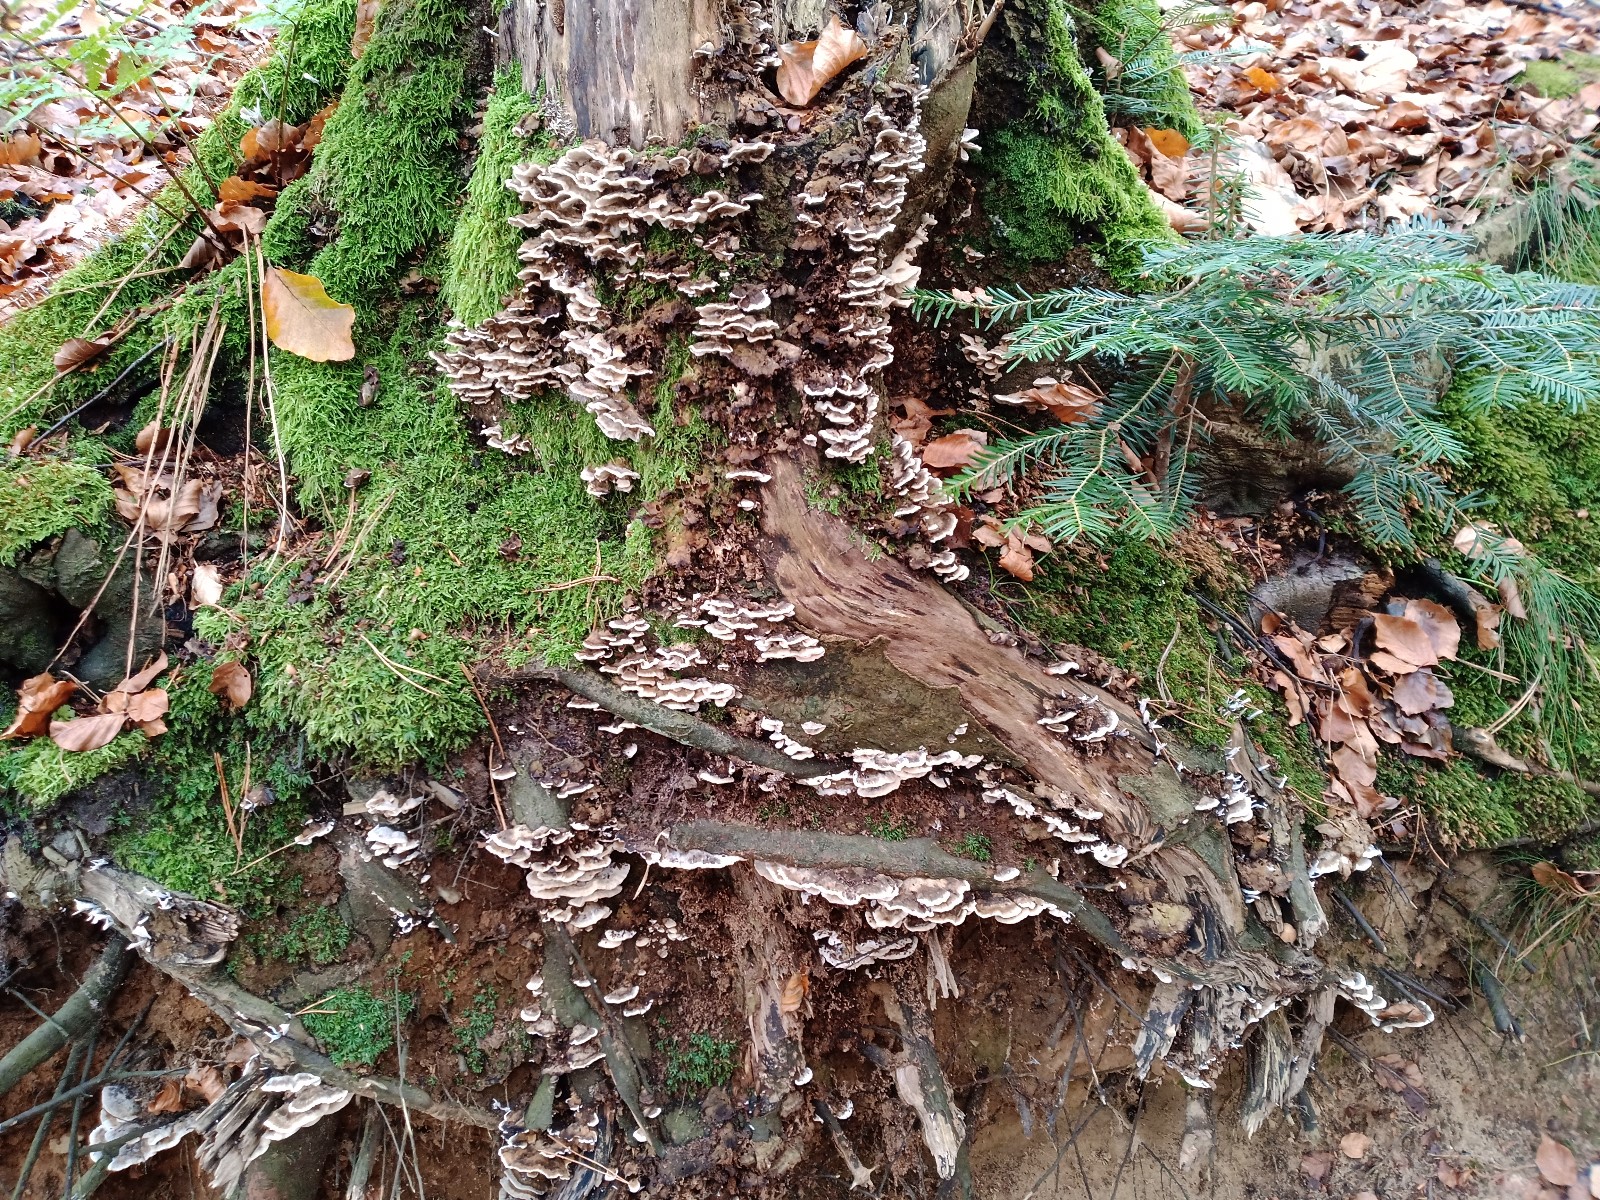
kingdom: Fungi
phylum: Basidiomycota
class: Agaricomycetes
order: Polyporales
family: Phanerochaetaceae
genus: Bjerkandera
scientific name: Bjerkandera adusta
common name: sveden sodporesvamp
